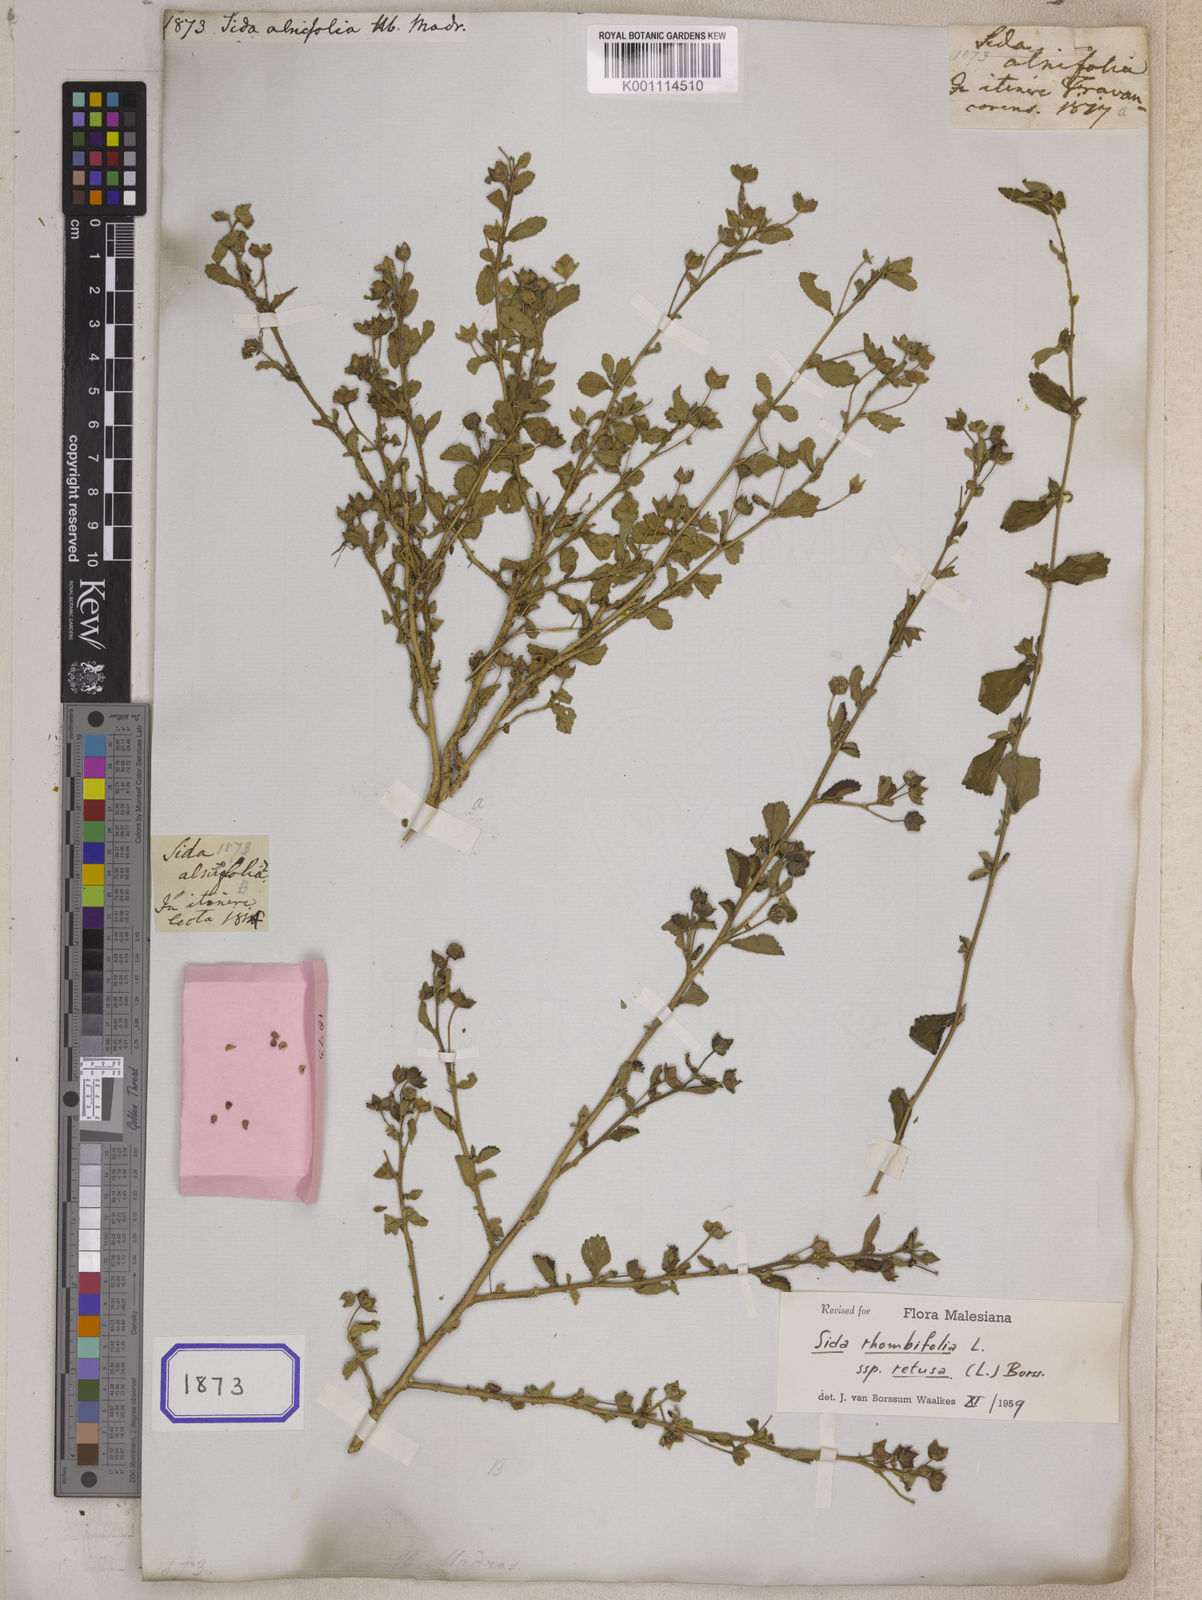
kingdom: Plantae
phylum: Tracheophyta
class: Magnoliopsida
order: Malvales
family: Malvaceae
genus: Sida
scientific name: Sida alnifolia
